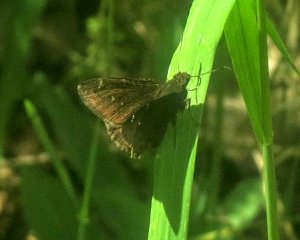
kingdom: Animalia
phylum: Arthropoda
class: Insecta
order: Lepidoptera
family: Hesperiidae
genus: Autochton
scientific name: Autochton
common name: Northern Cloudywing
